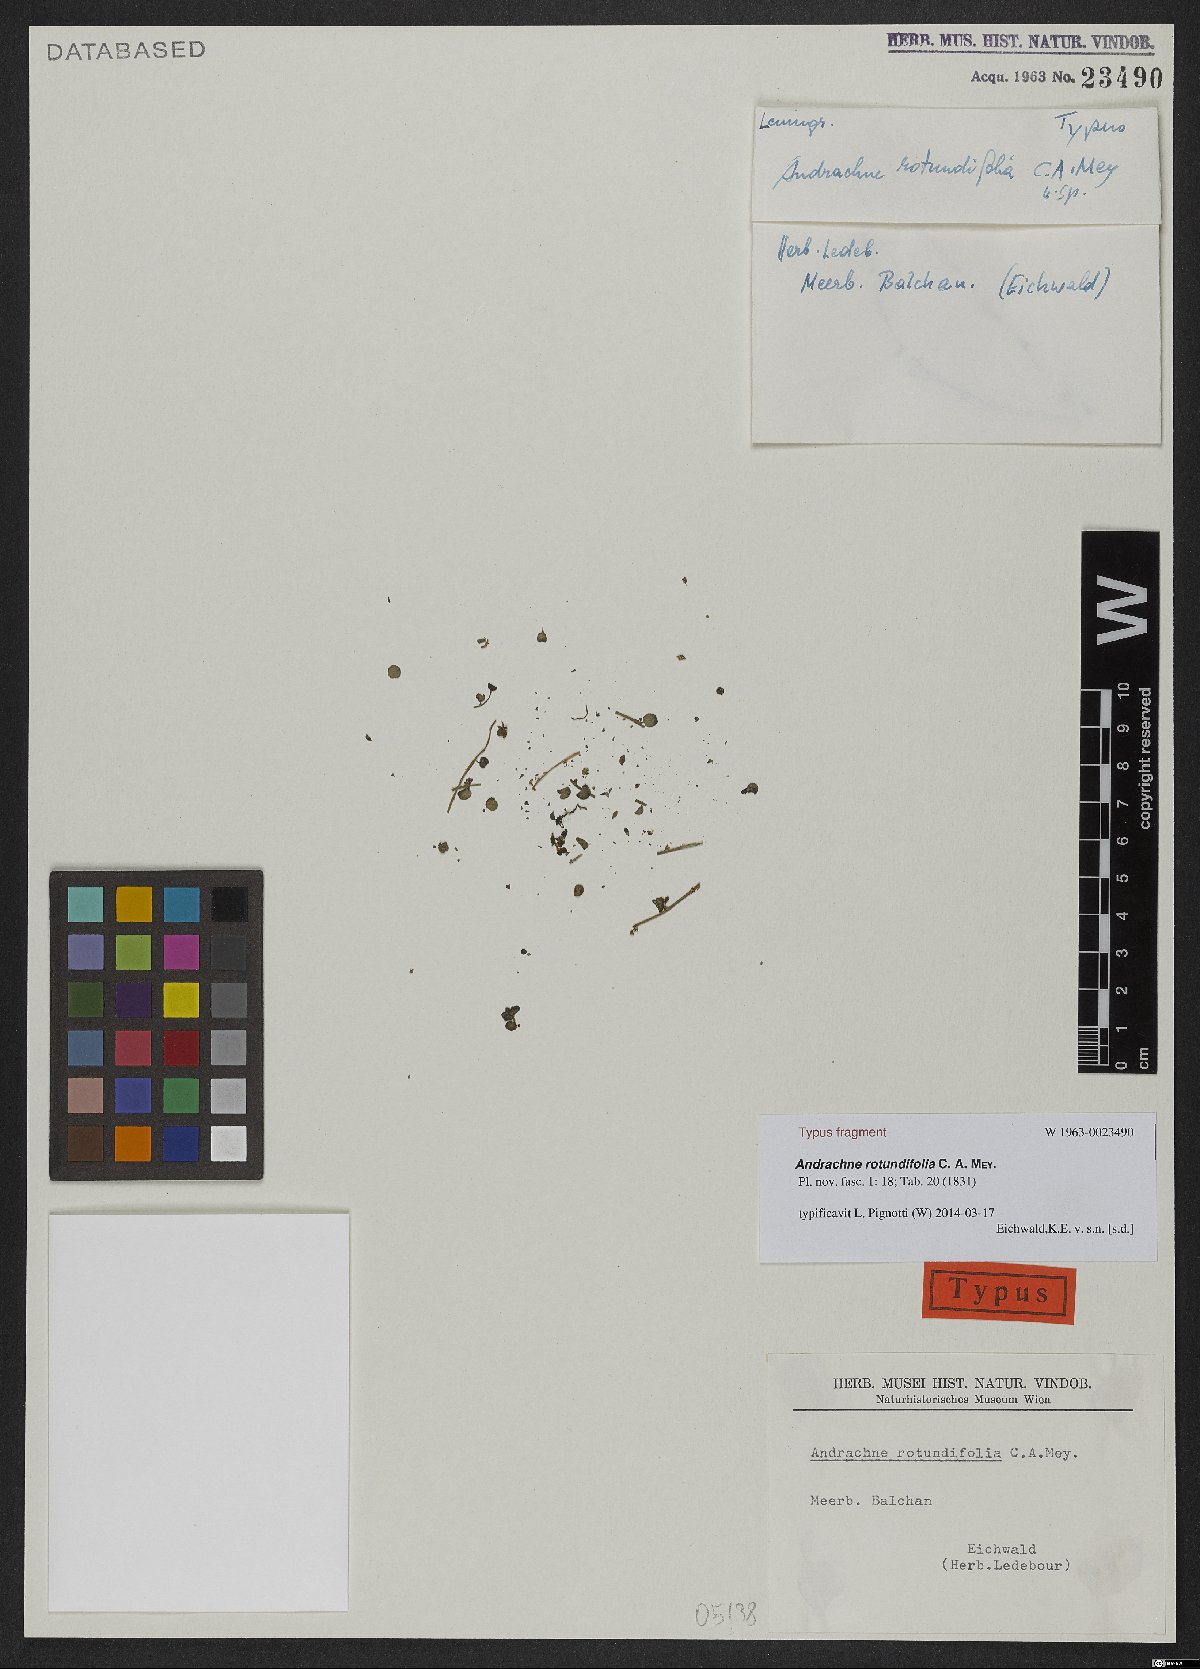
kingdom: Plantae
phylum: Tracheophyta
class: Magnoliopsida
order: Malpighiales
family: Phyllanthaceae
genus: Andrachne
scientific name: Andrachne telephioides
